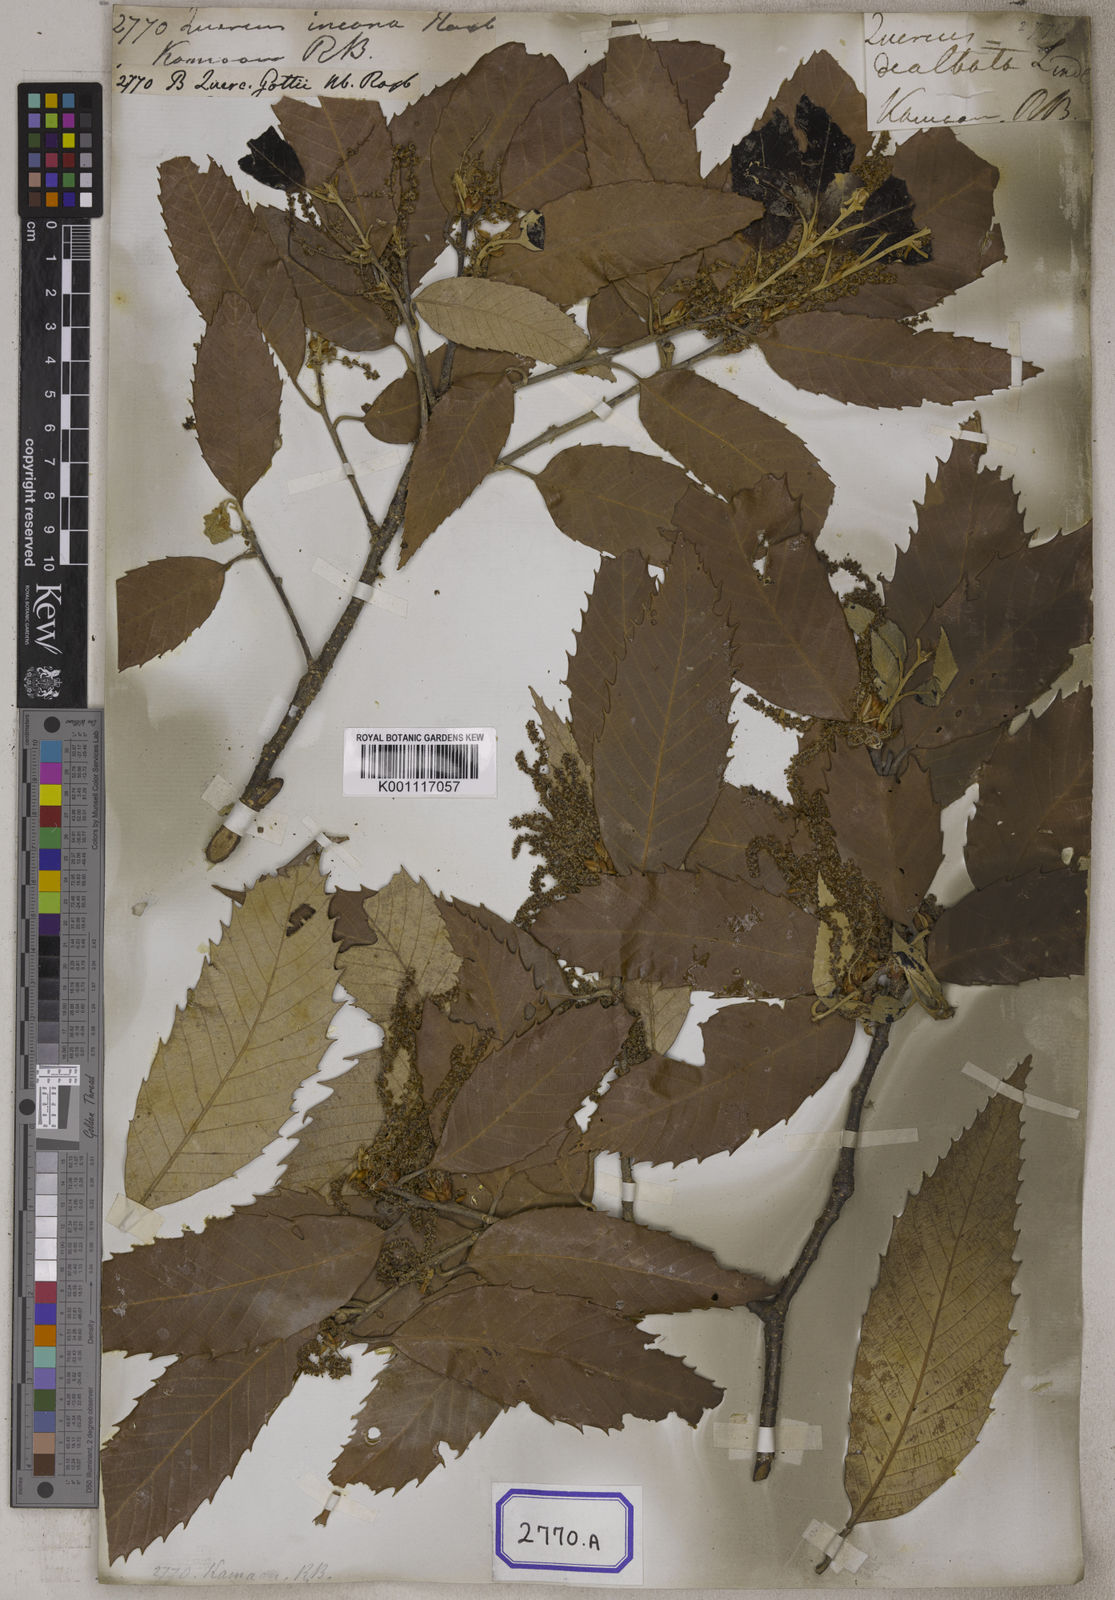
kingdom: Plantae
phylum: Tracheophyta
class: Magnoliopsida
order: Fagales
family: Fagaceae
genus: Quercus
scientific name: Quercus leucotrichophora
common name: Banj oak
